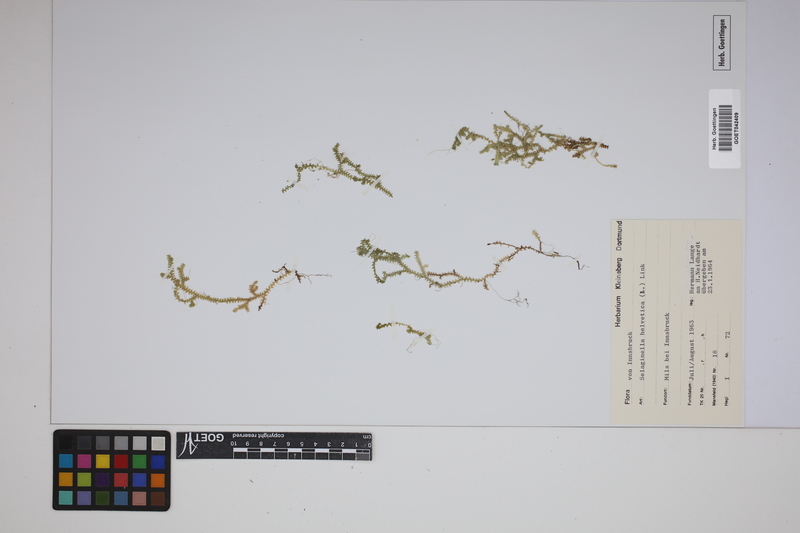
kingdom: Plantae
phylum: Tracheophyta
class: Lycopodiopsida
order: Selaginellales
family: Selaginellaceae
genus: Selaginella
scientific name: Selaginella helvetica
